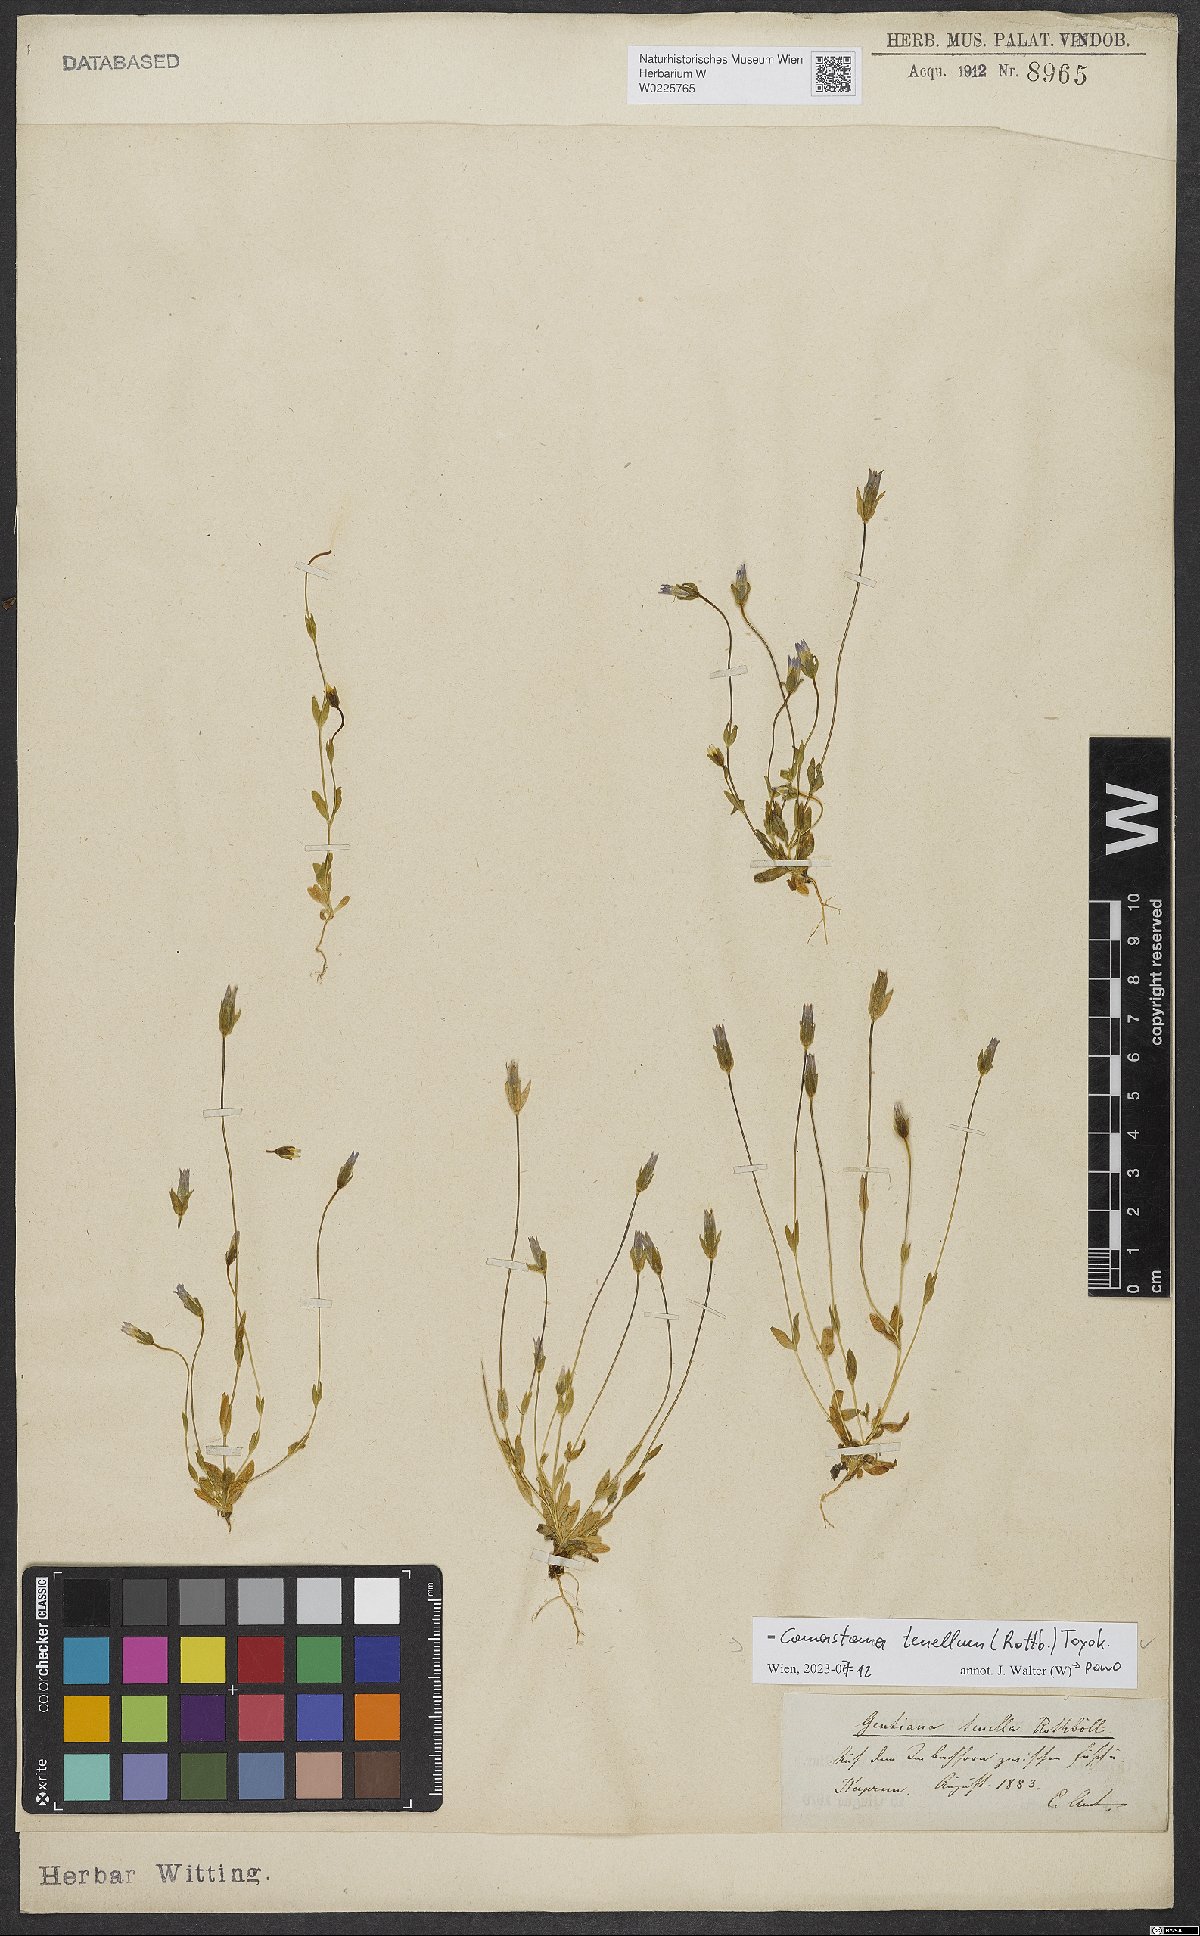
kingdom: Plantae
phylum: Tracheophyta
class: Magnoliopsida
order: Gentianales
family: Gentianaceae
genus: Comastoma
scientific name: Comastoma tenellum
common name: Dane's dwarf gentian
